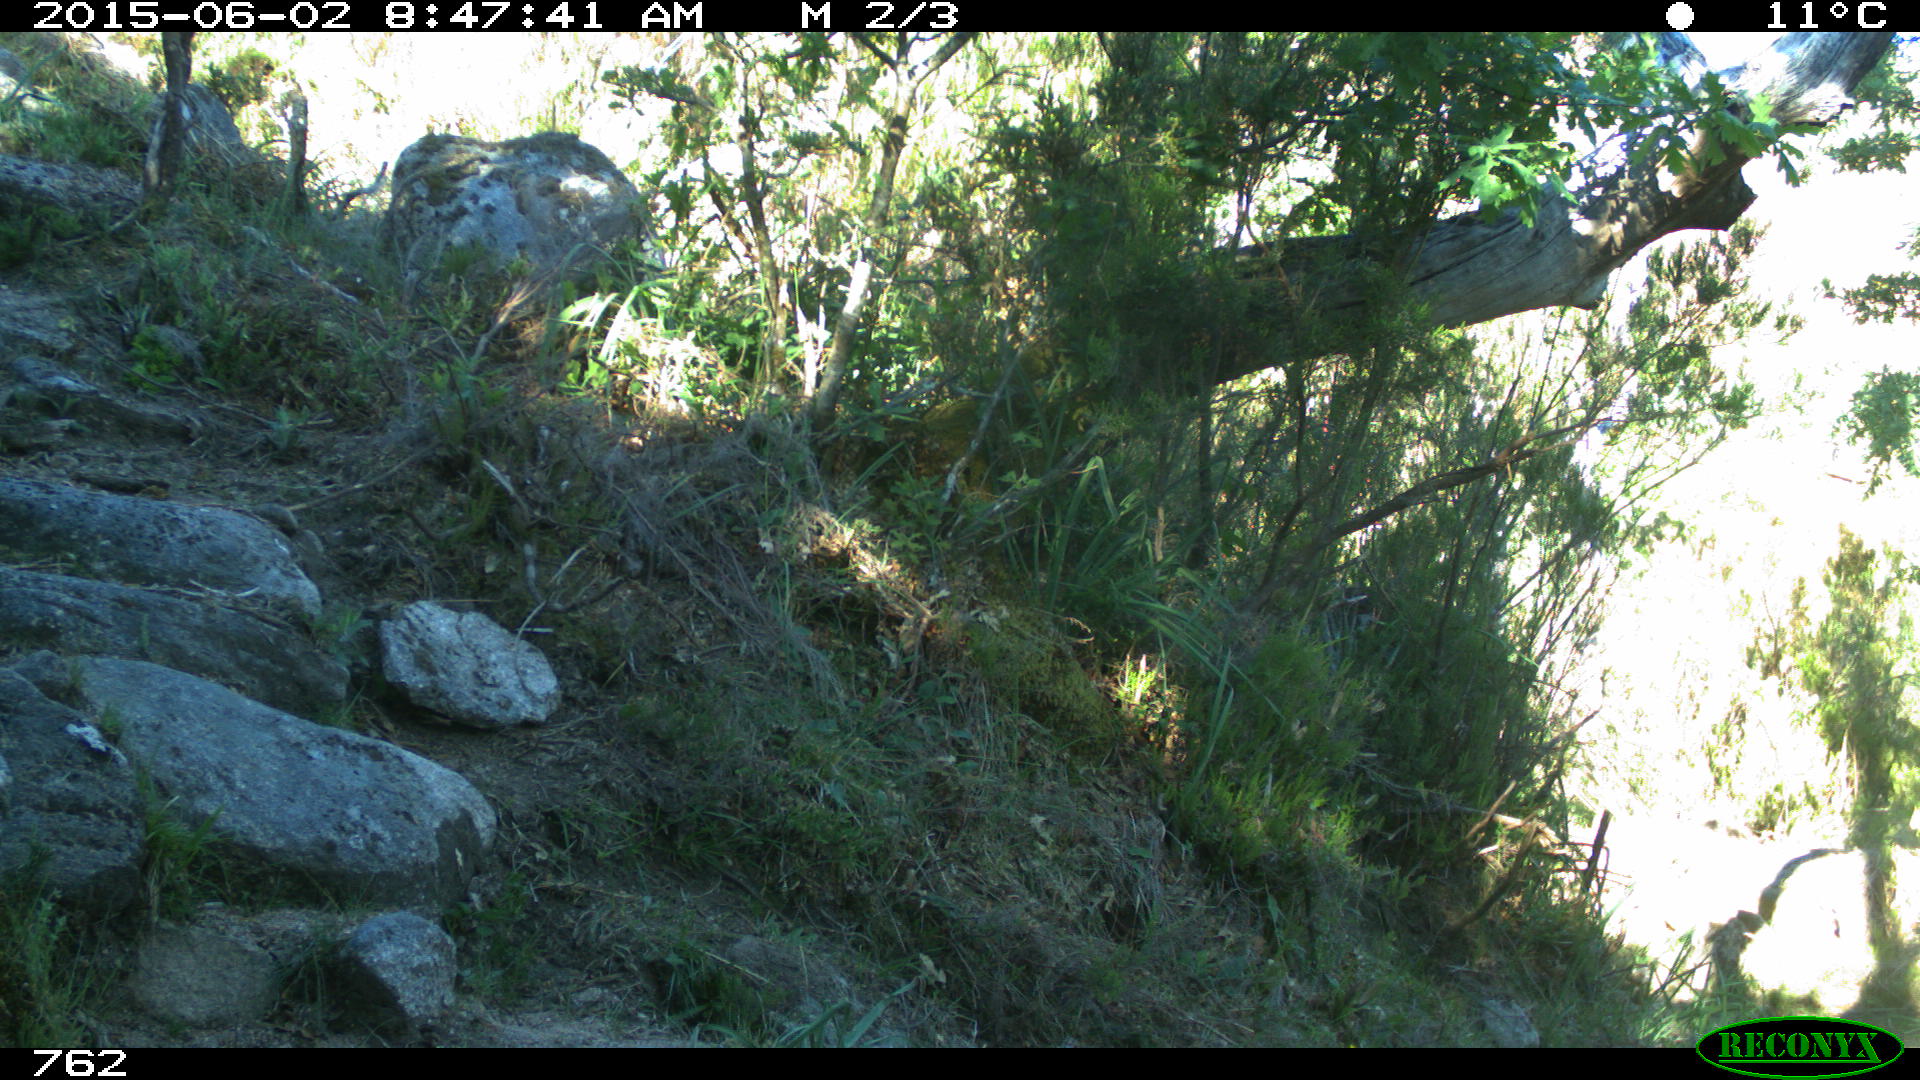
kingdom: Animalia
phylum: Chordata
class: Mammalia
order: Artiodactyla
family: Bovidae
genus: Bos
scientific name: Bos taurus
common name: Domesticated cattle
